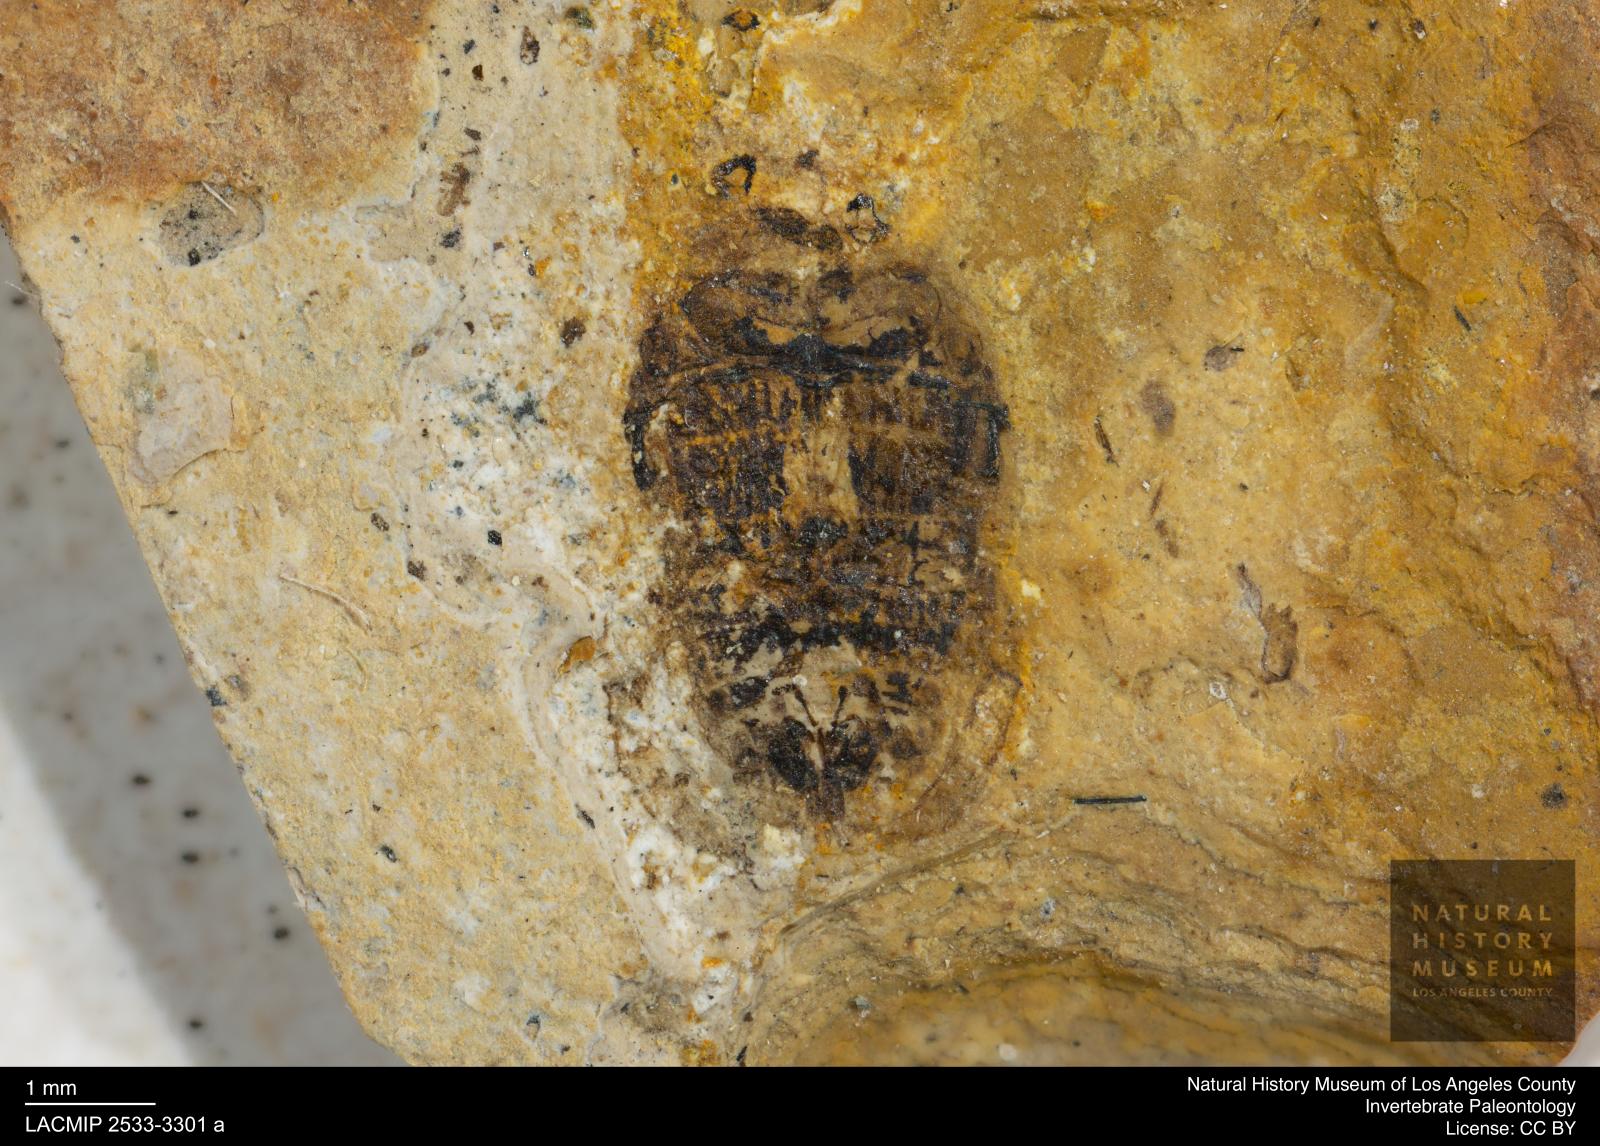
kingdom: Animalia
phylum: Arthropoda
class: Insecta
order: Coleoptera
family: Dytiscidae
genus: Laccophilus
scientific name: Laccophilus Palaeogyrinus strigatus
